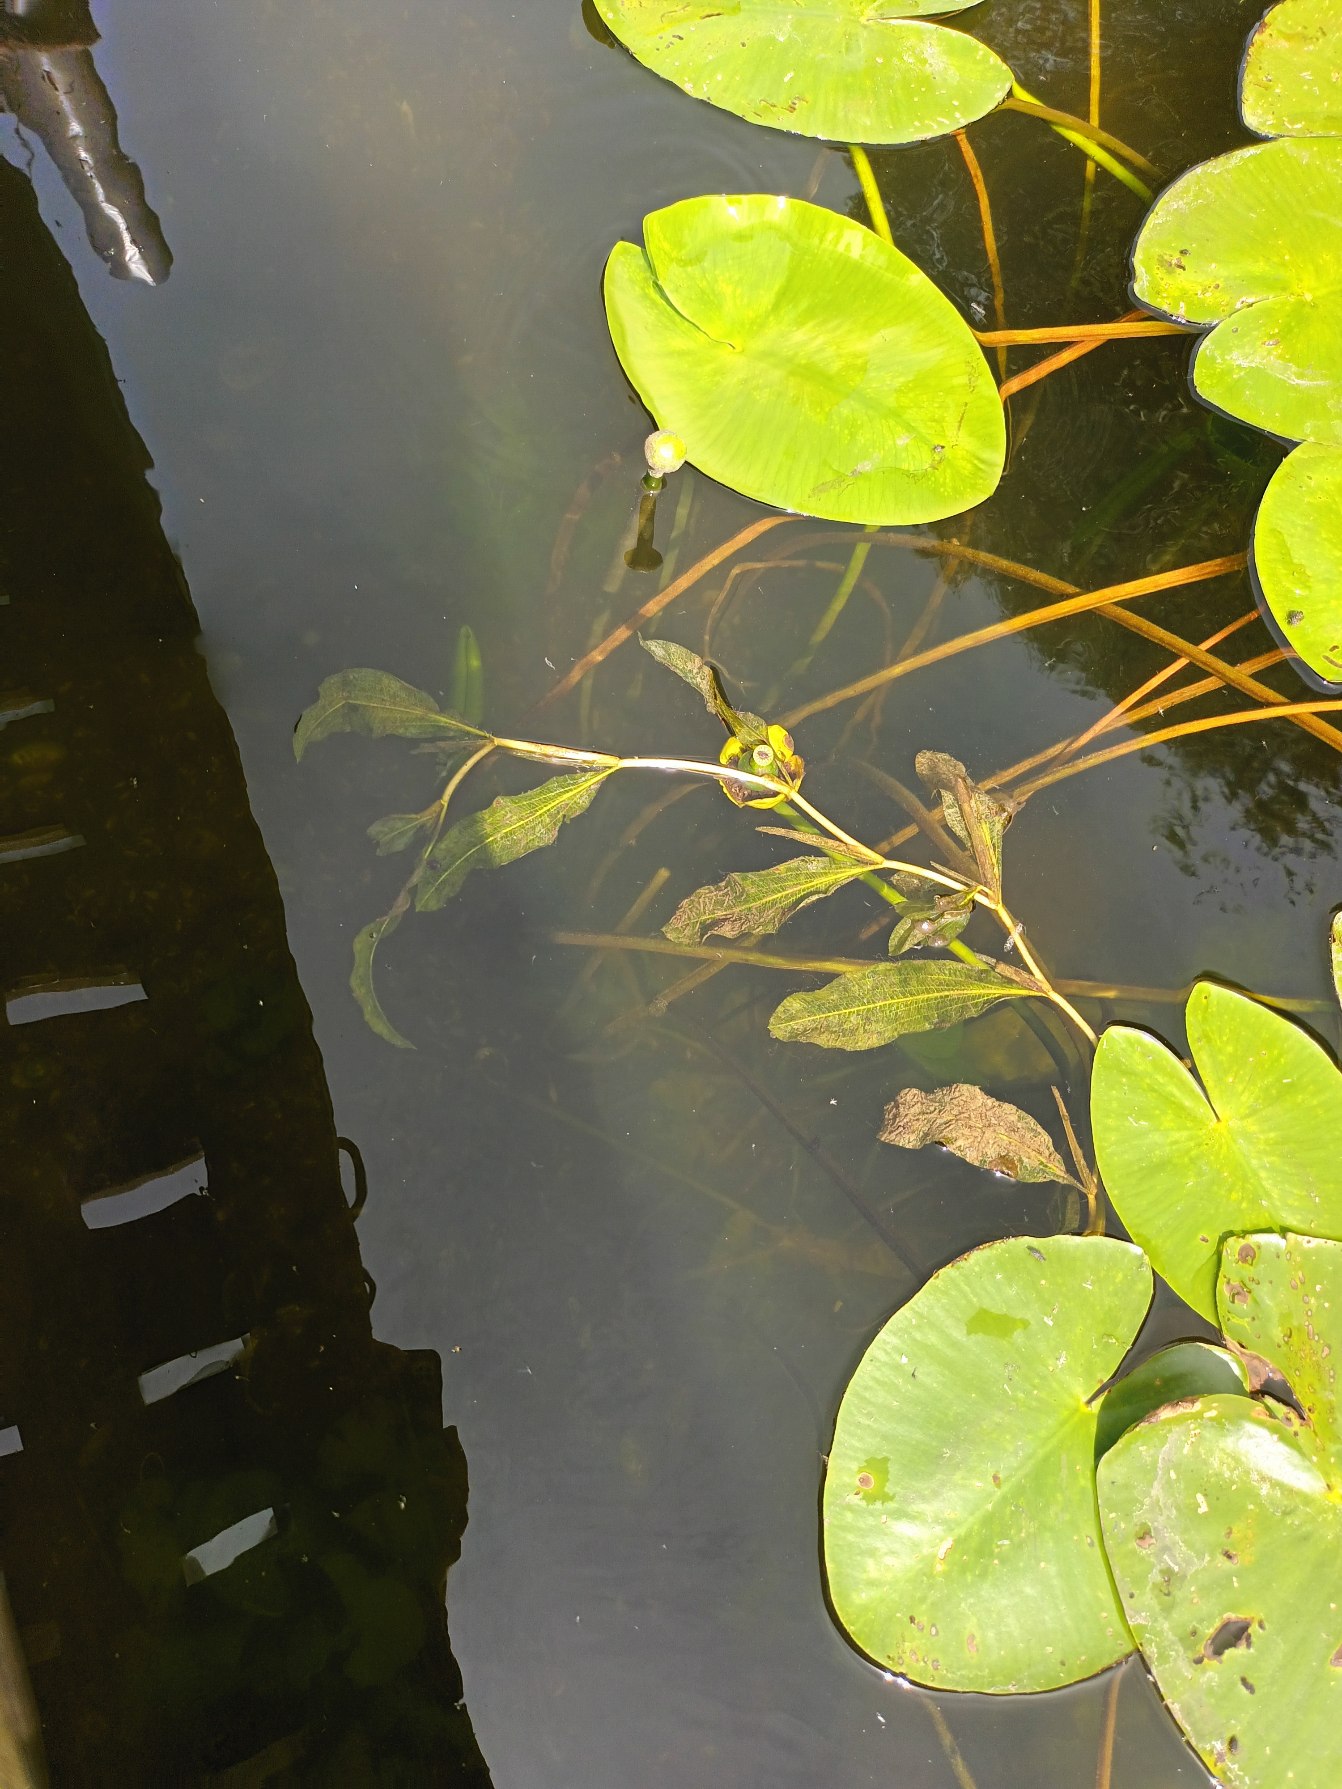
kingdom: Plantae
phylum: Tracheophyta
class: Liliopsida
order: Alismatales
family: Potamogetonaceae
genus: Potamogeton
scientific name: Potamogeton lucens
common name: Glinsende vandaks
